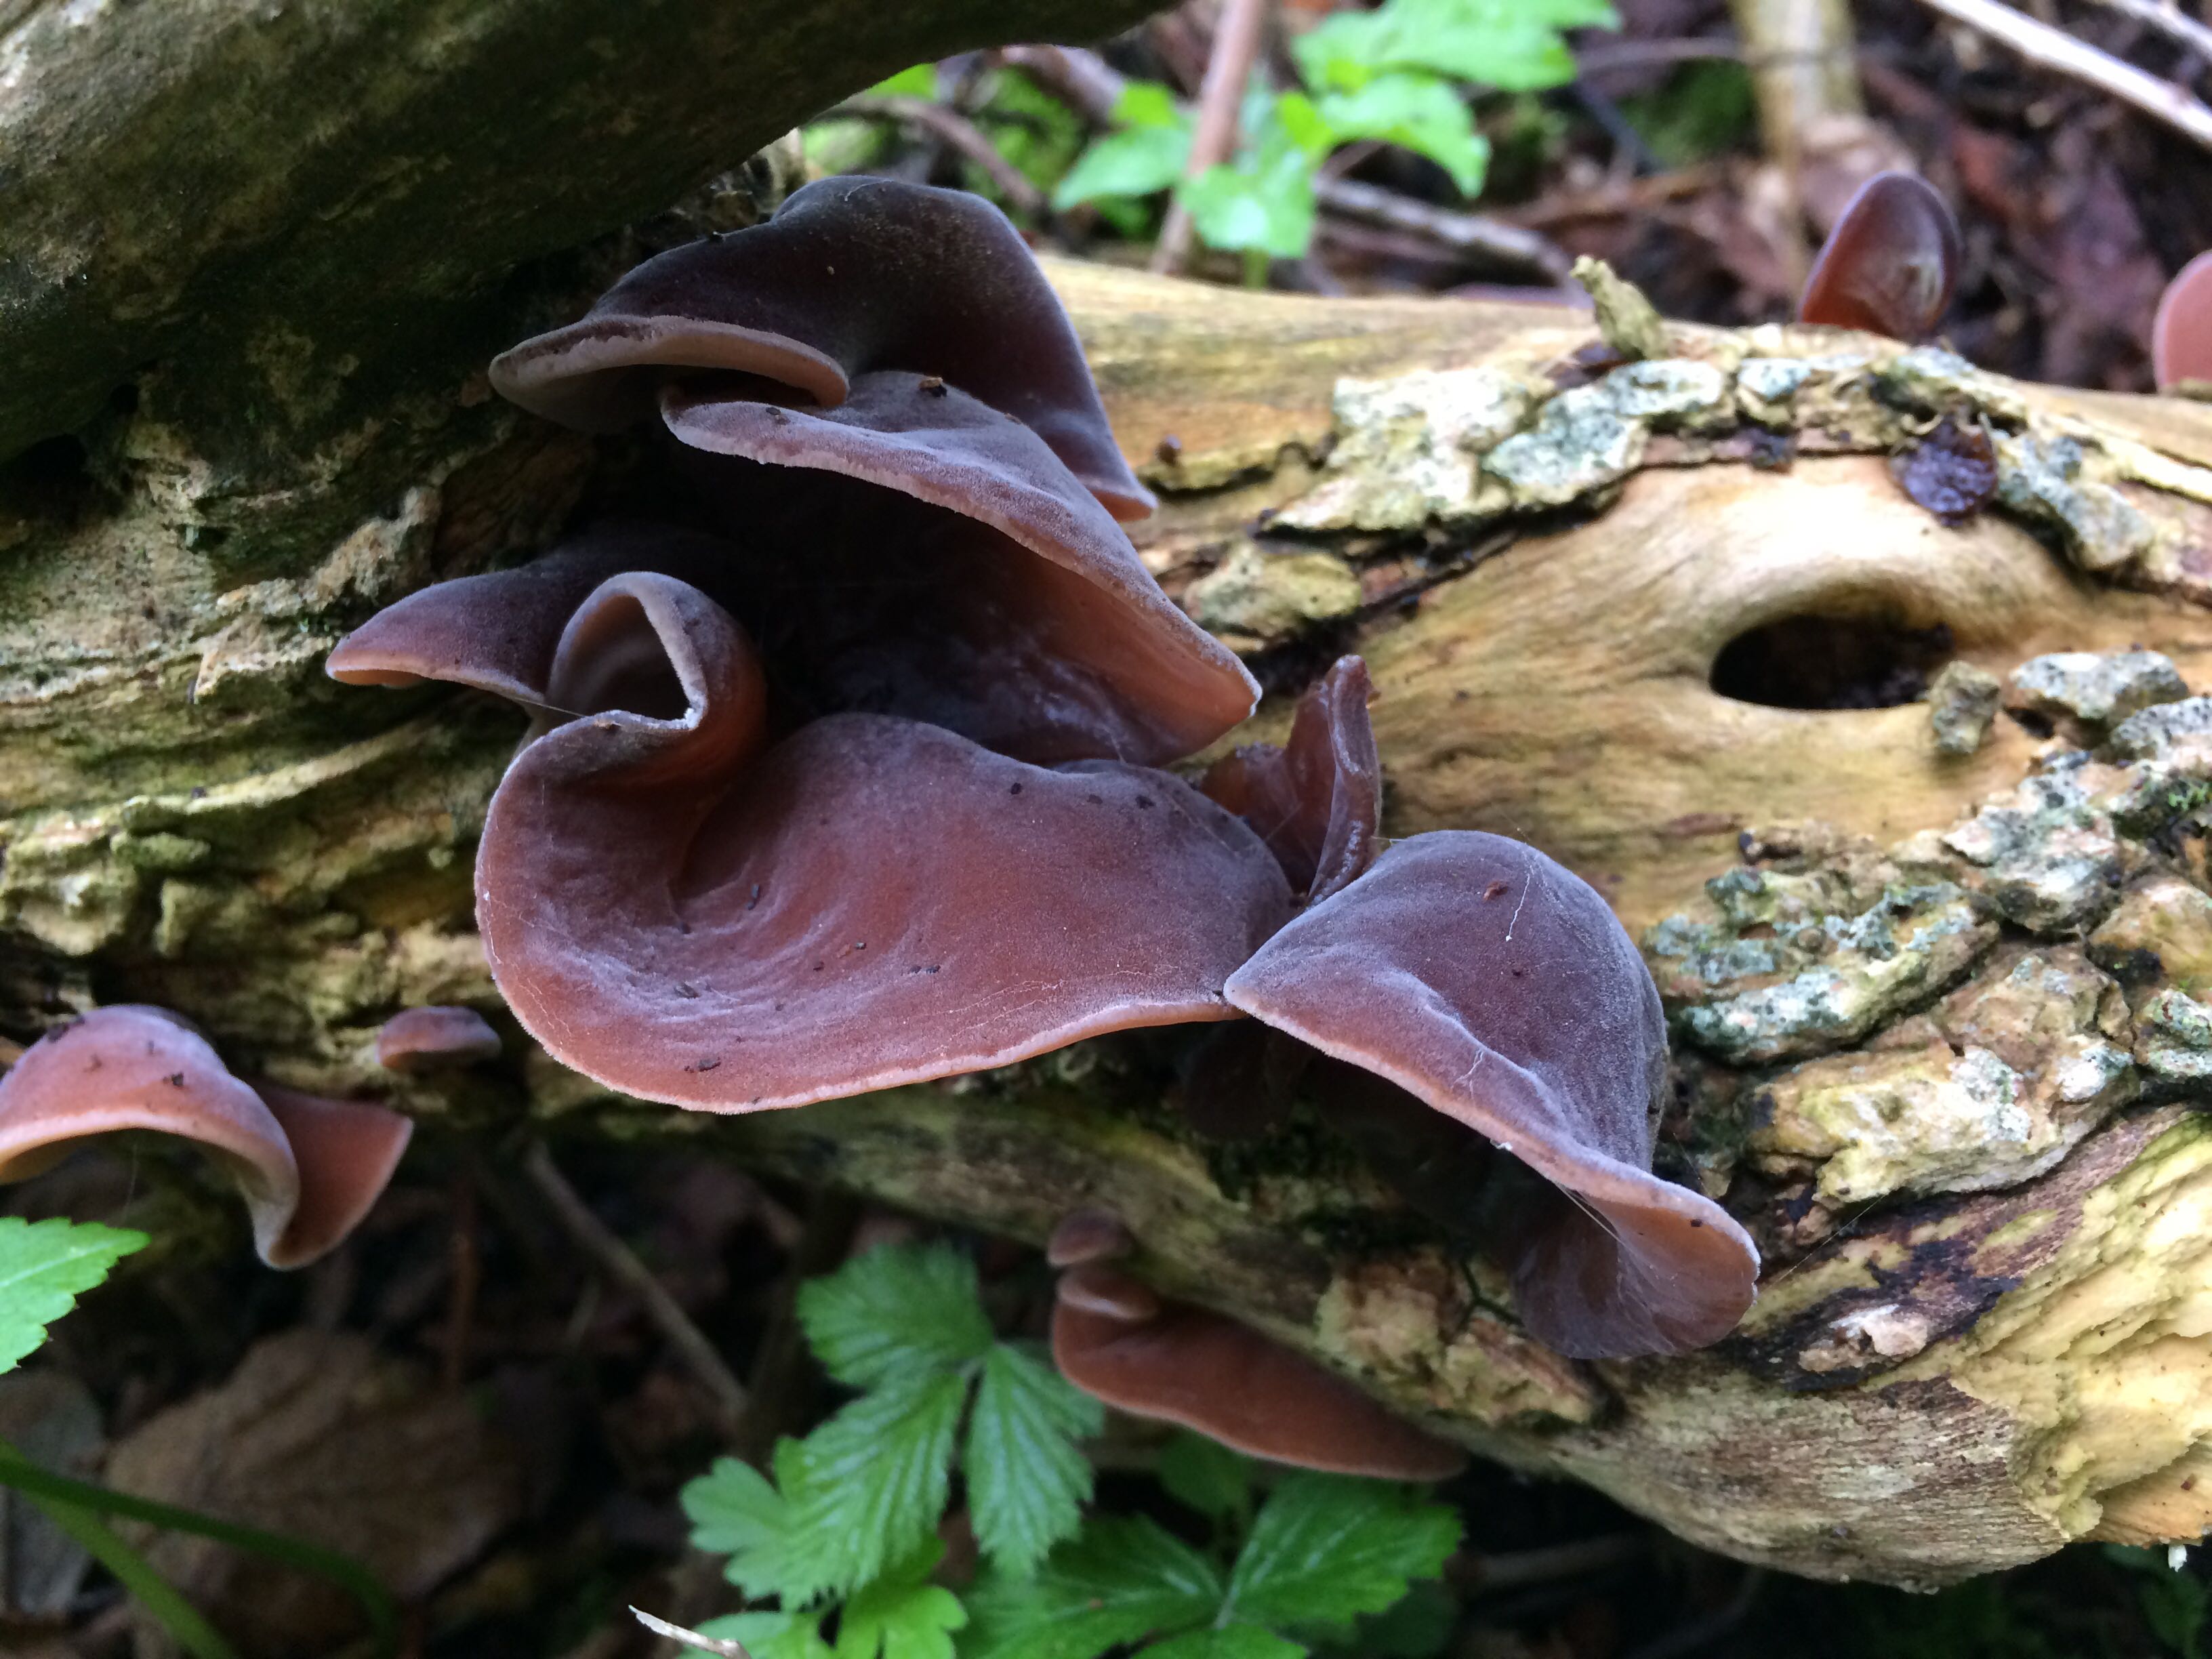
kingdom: Fungi
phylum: Basidiomycota
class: Agaricomycetes
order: Auriculariales
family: Auriculariaceae
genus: Auricularia
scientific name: Auricularia auricula-judae
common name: almindelig judasøre
